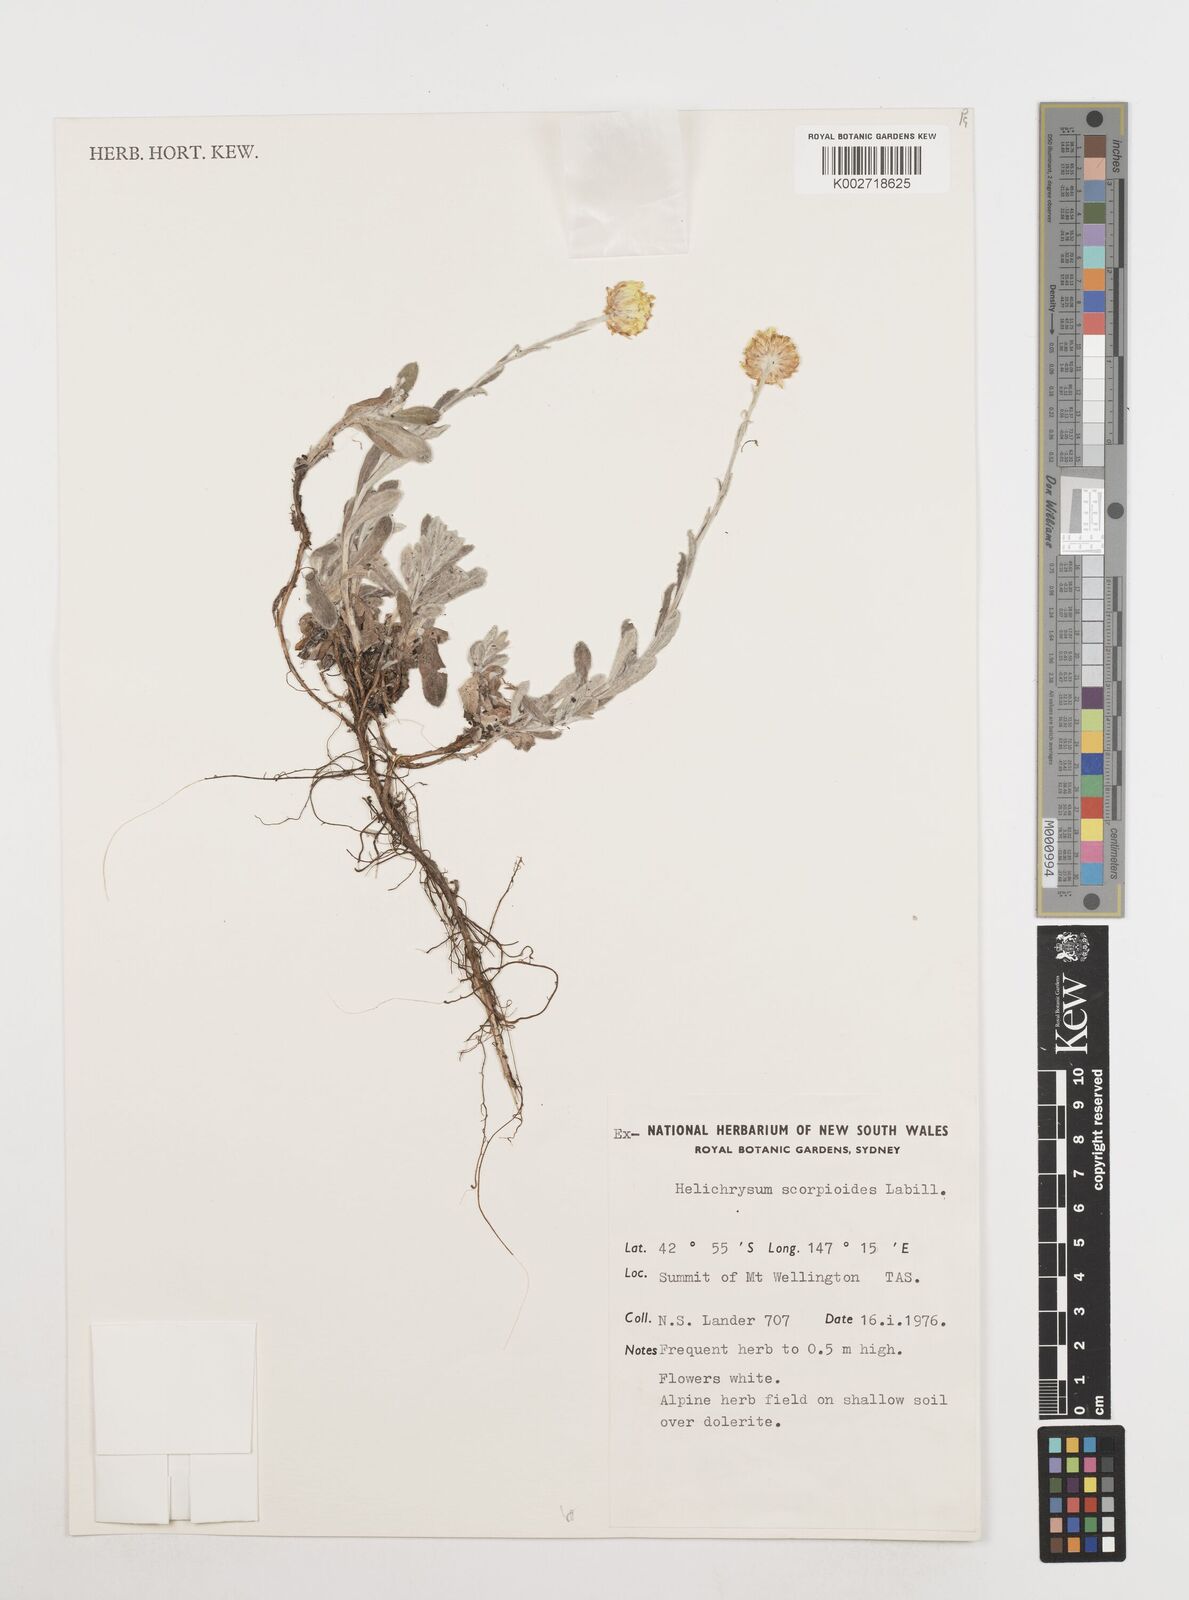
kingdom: Plantae
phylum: Tracheophyta
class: Magnoliopsida
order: Asterales
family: Asteraceae
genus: Coronidium
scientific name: Coronidium scorpioides
